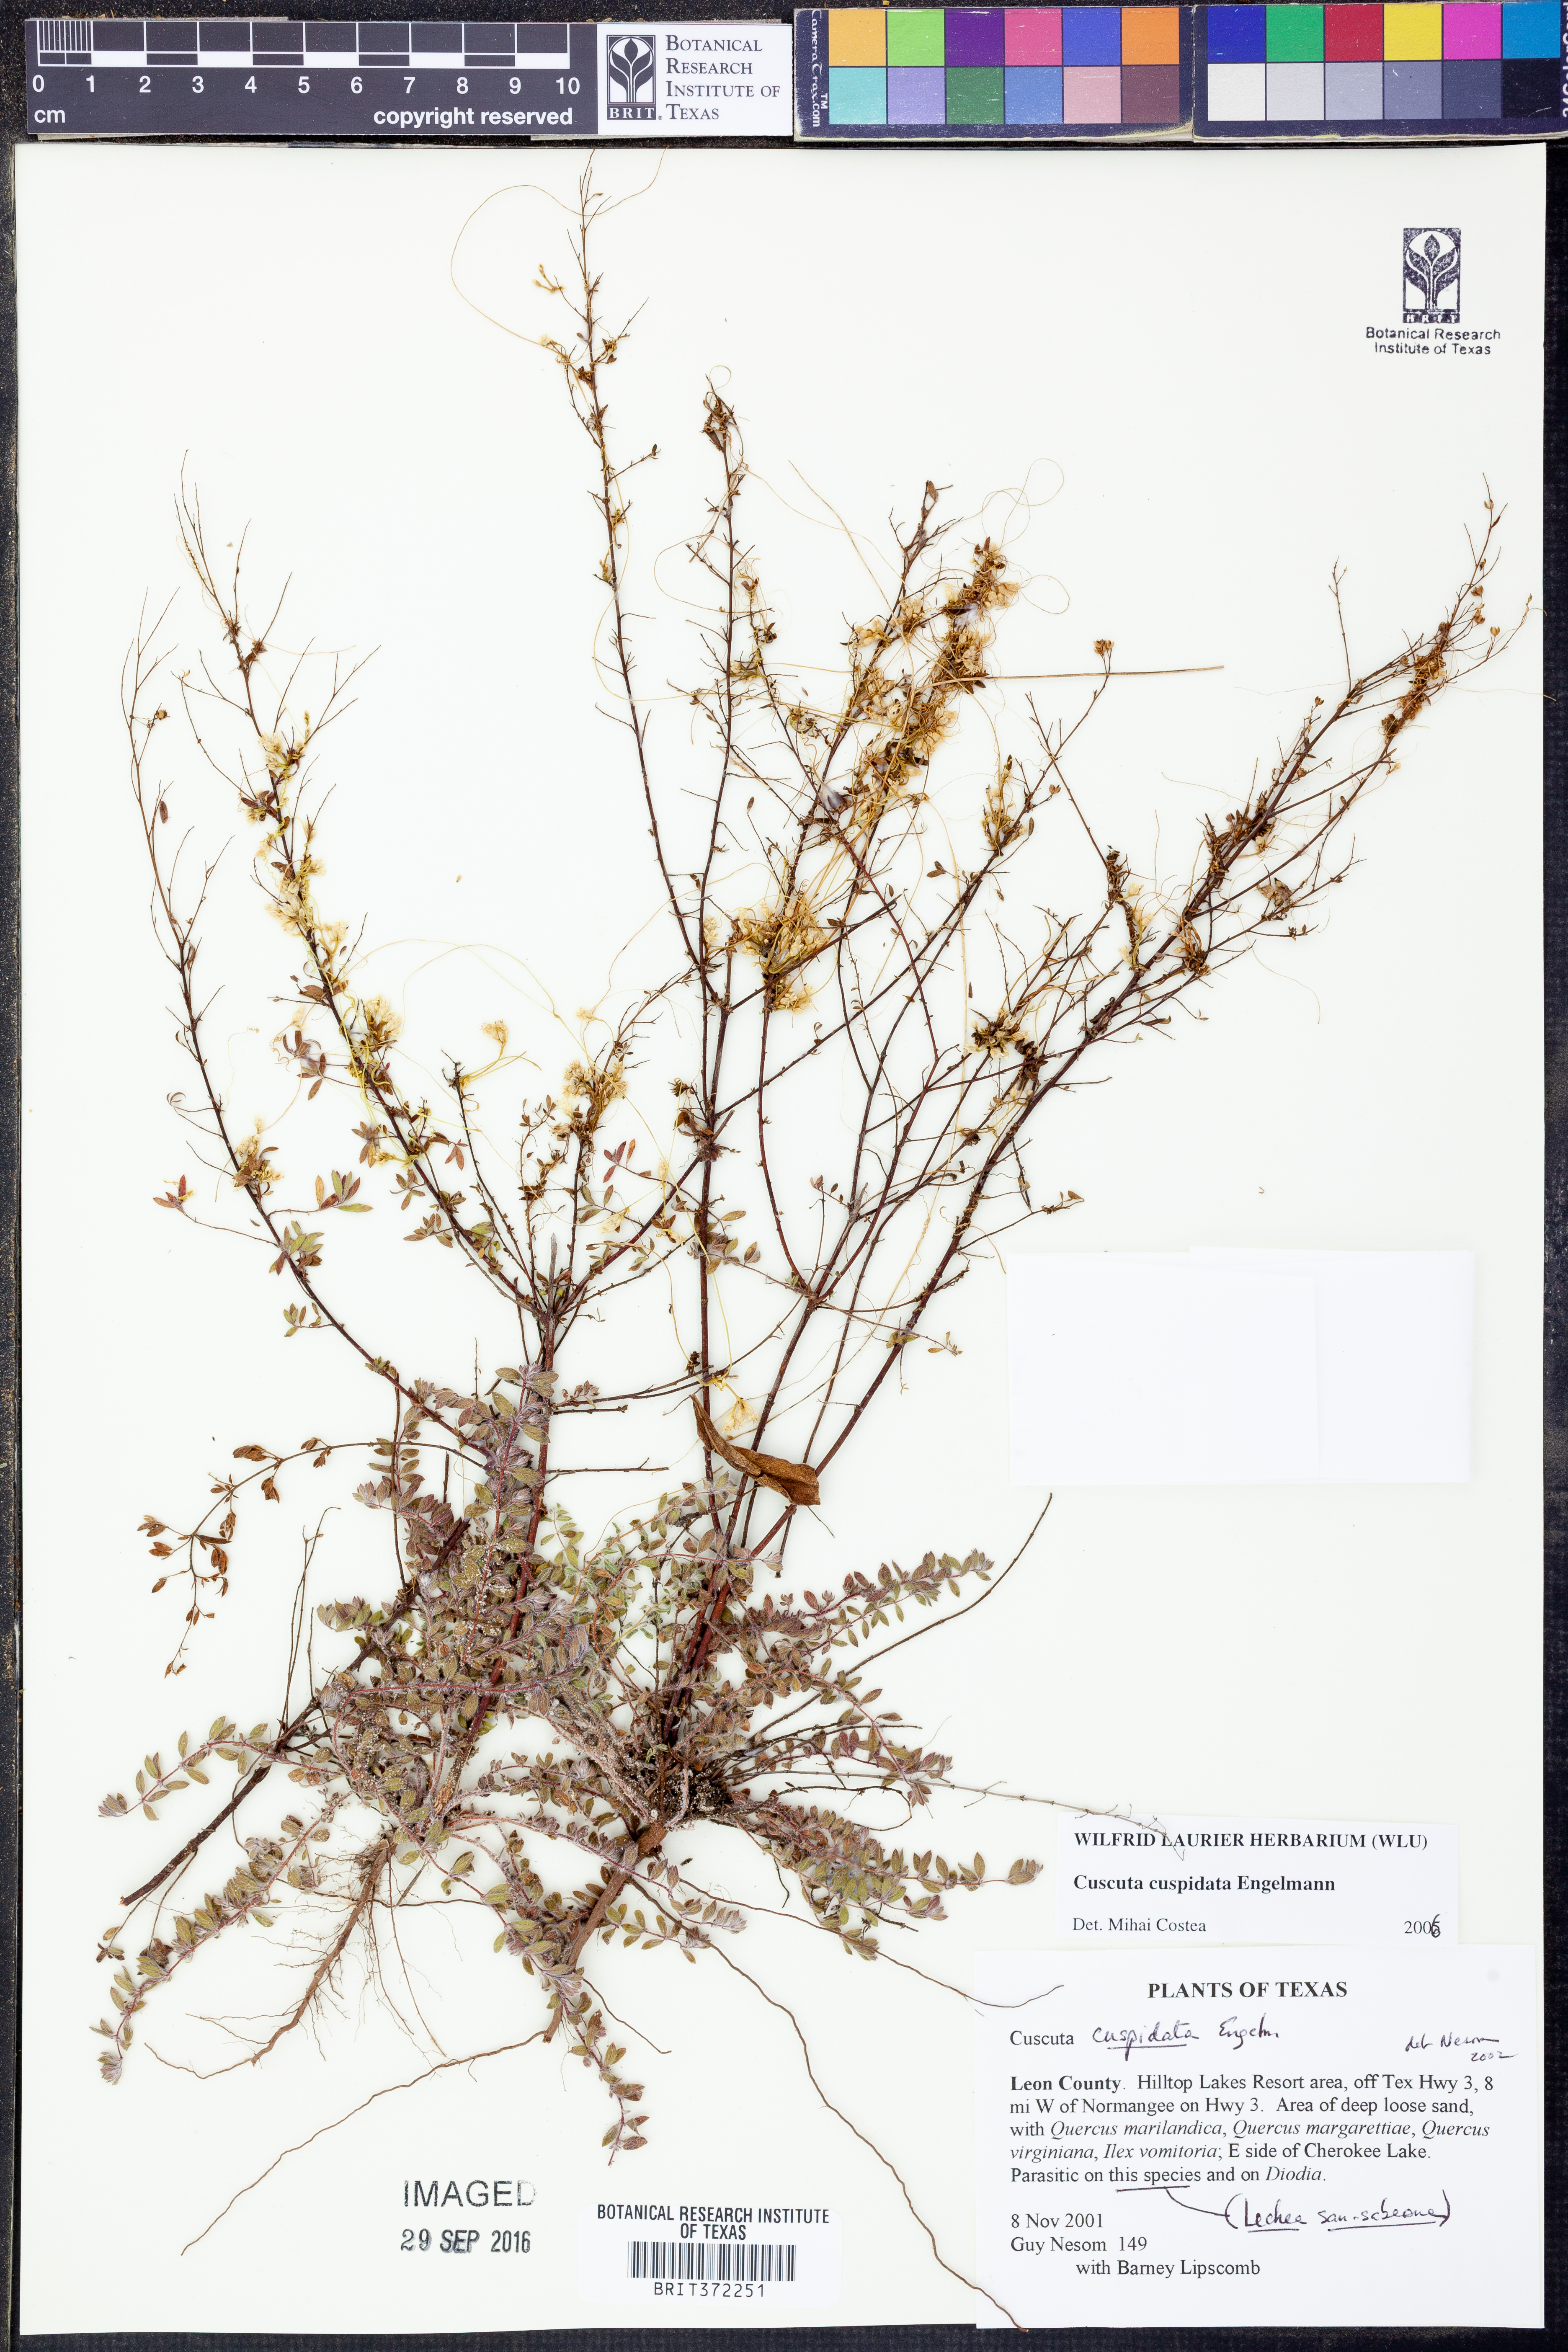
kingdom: Plantae
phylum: Tracheophyta
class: Magnoliopsida
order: Solanales
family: Convolvulaceae
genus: Cuscuta
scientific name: Cuscuta cuspidata
